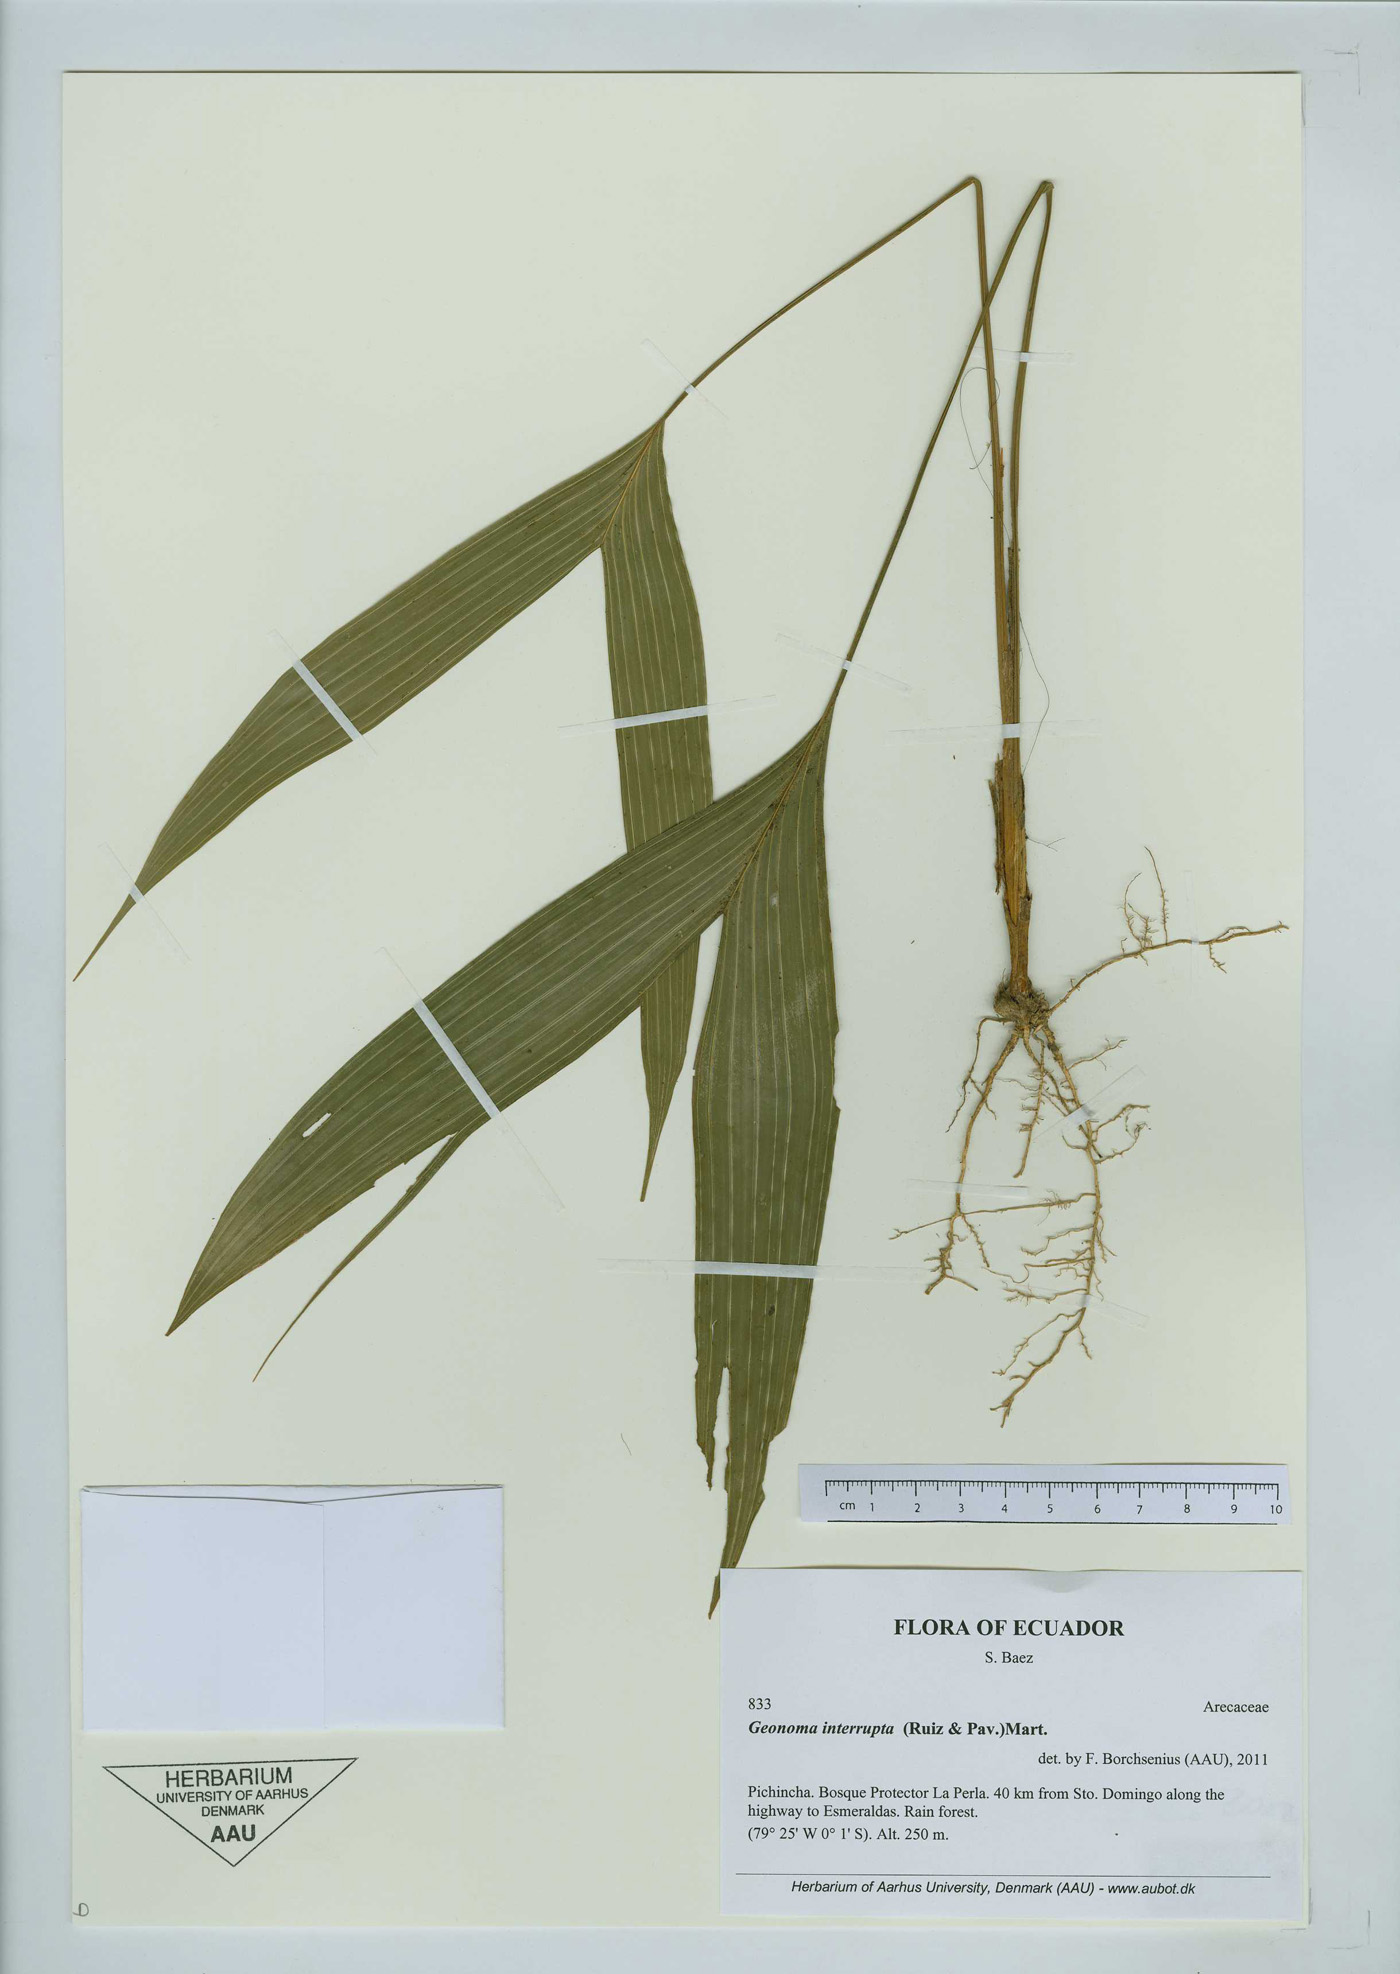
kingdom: Plantae
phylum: Tracheophyta
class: Liliopsida
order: Arecales
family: Arecaceae
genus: Geonoma
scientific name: Geonoma interrupta
